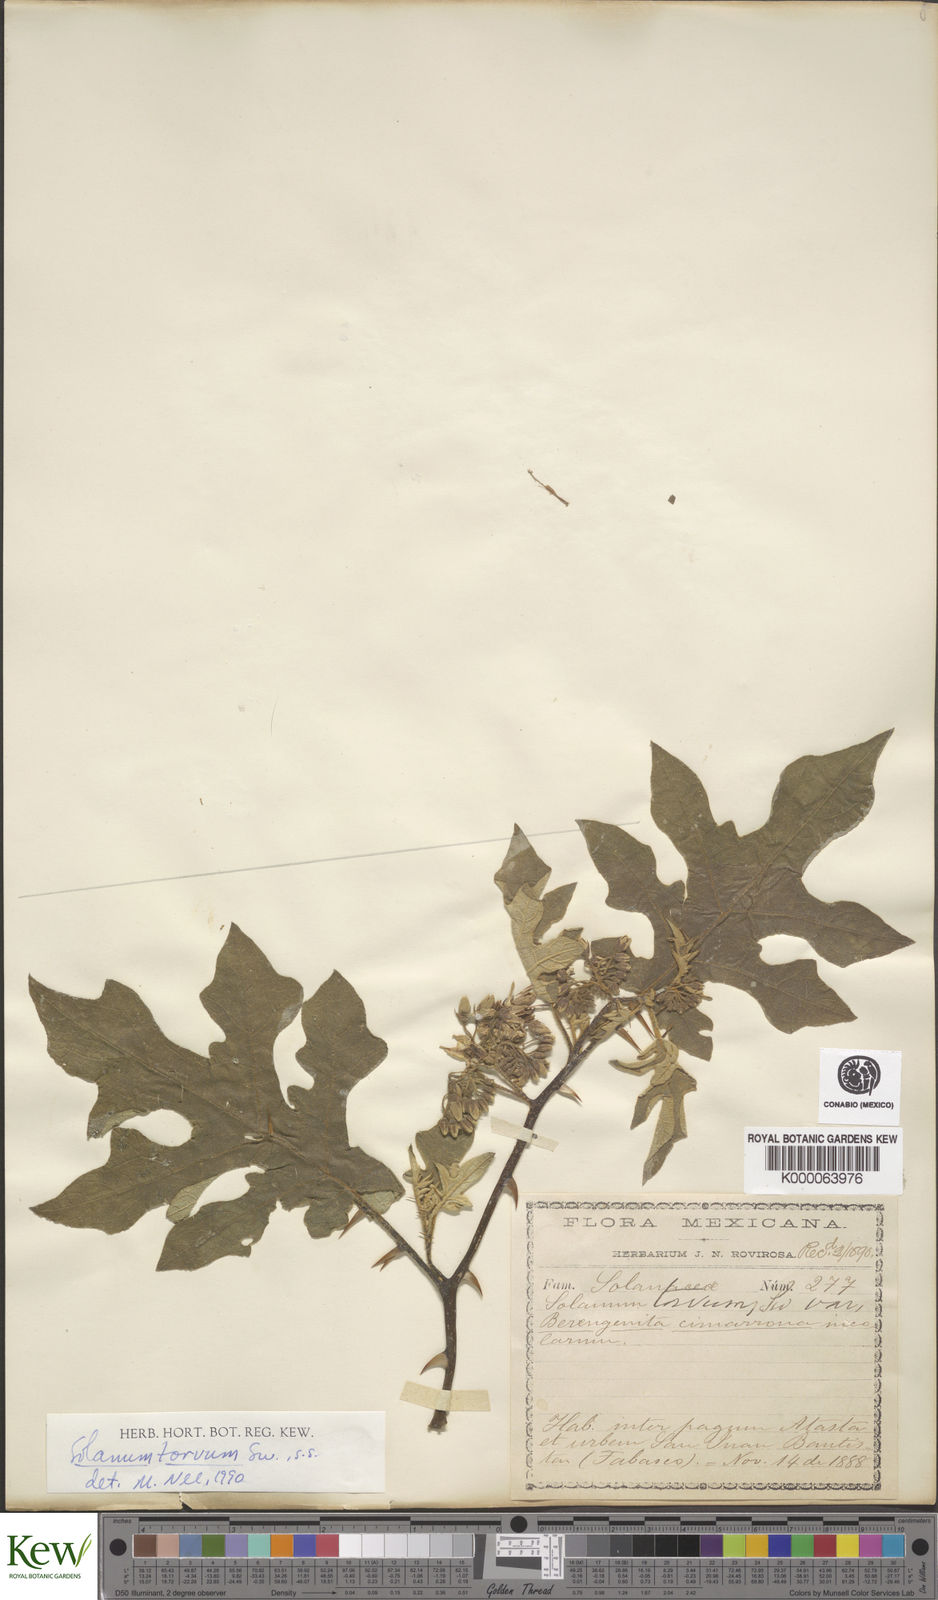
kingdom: Plantae
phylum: Tracheophyta
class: Magnoliopsida
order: Solanales
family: Solanaceae
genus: Solanum
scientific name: Solanum torvum
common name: Turkey berry
